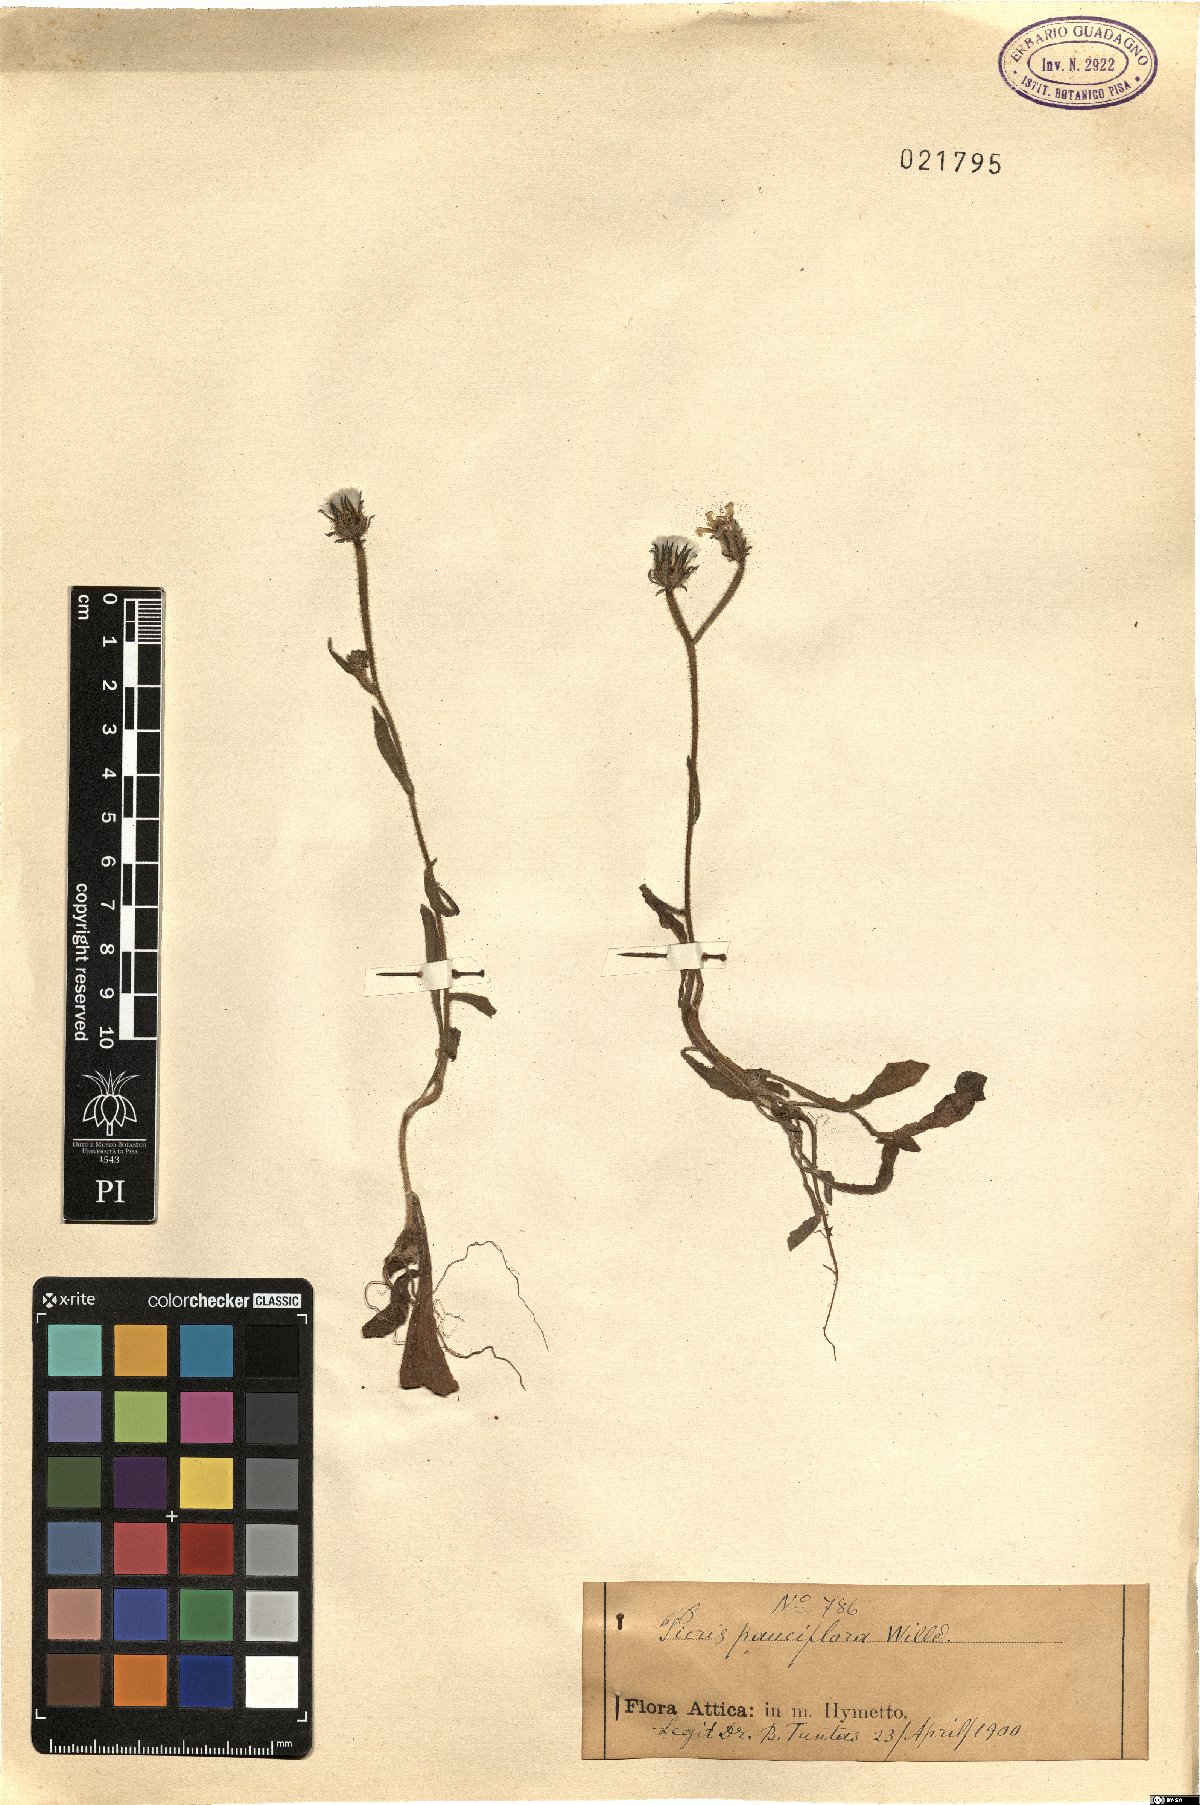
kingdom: Plantae
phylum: Tracheophyta
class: Magnoliopsida
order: Asterales
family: Asteraceae
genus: Picris
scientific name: Picris pauciflora
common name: Smallflower oxtongue
